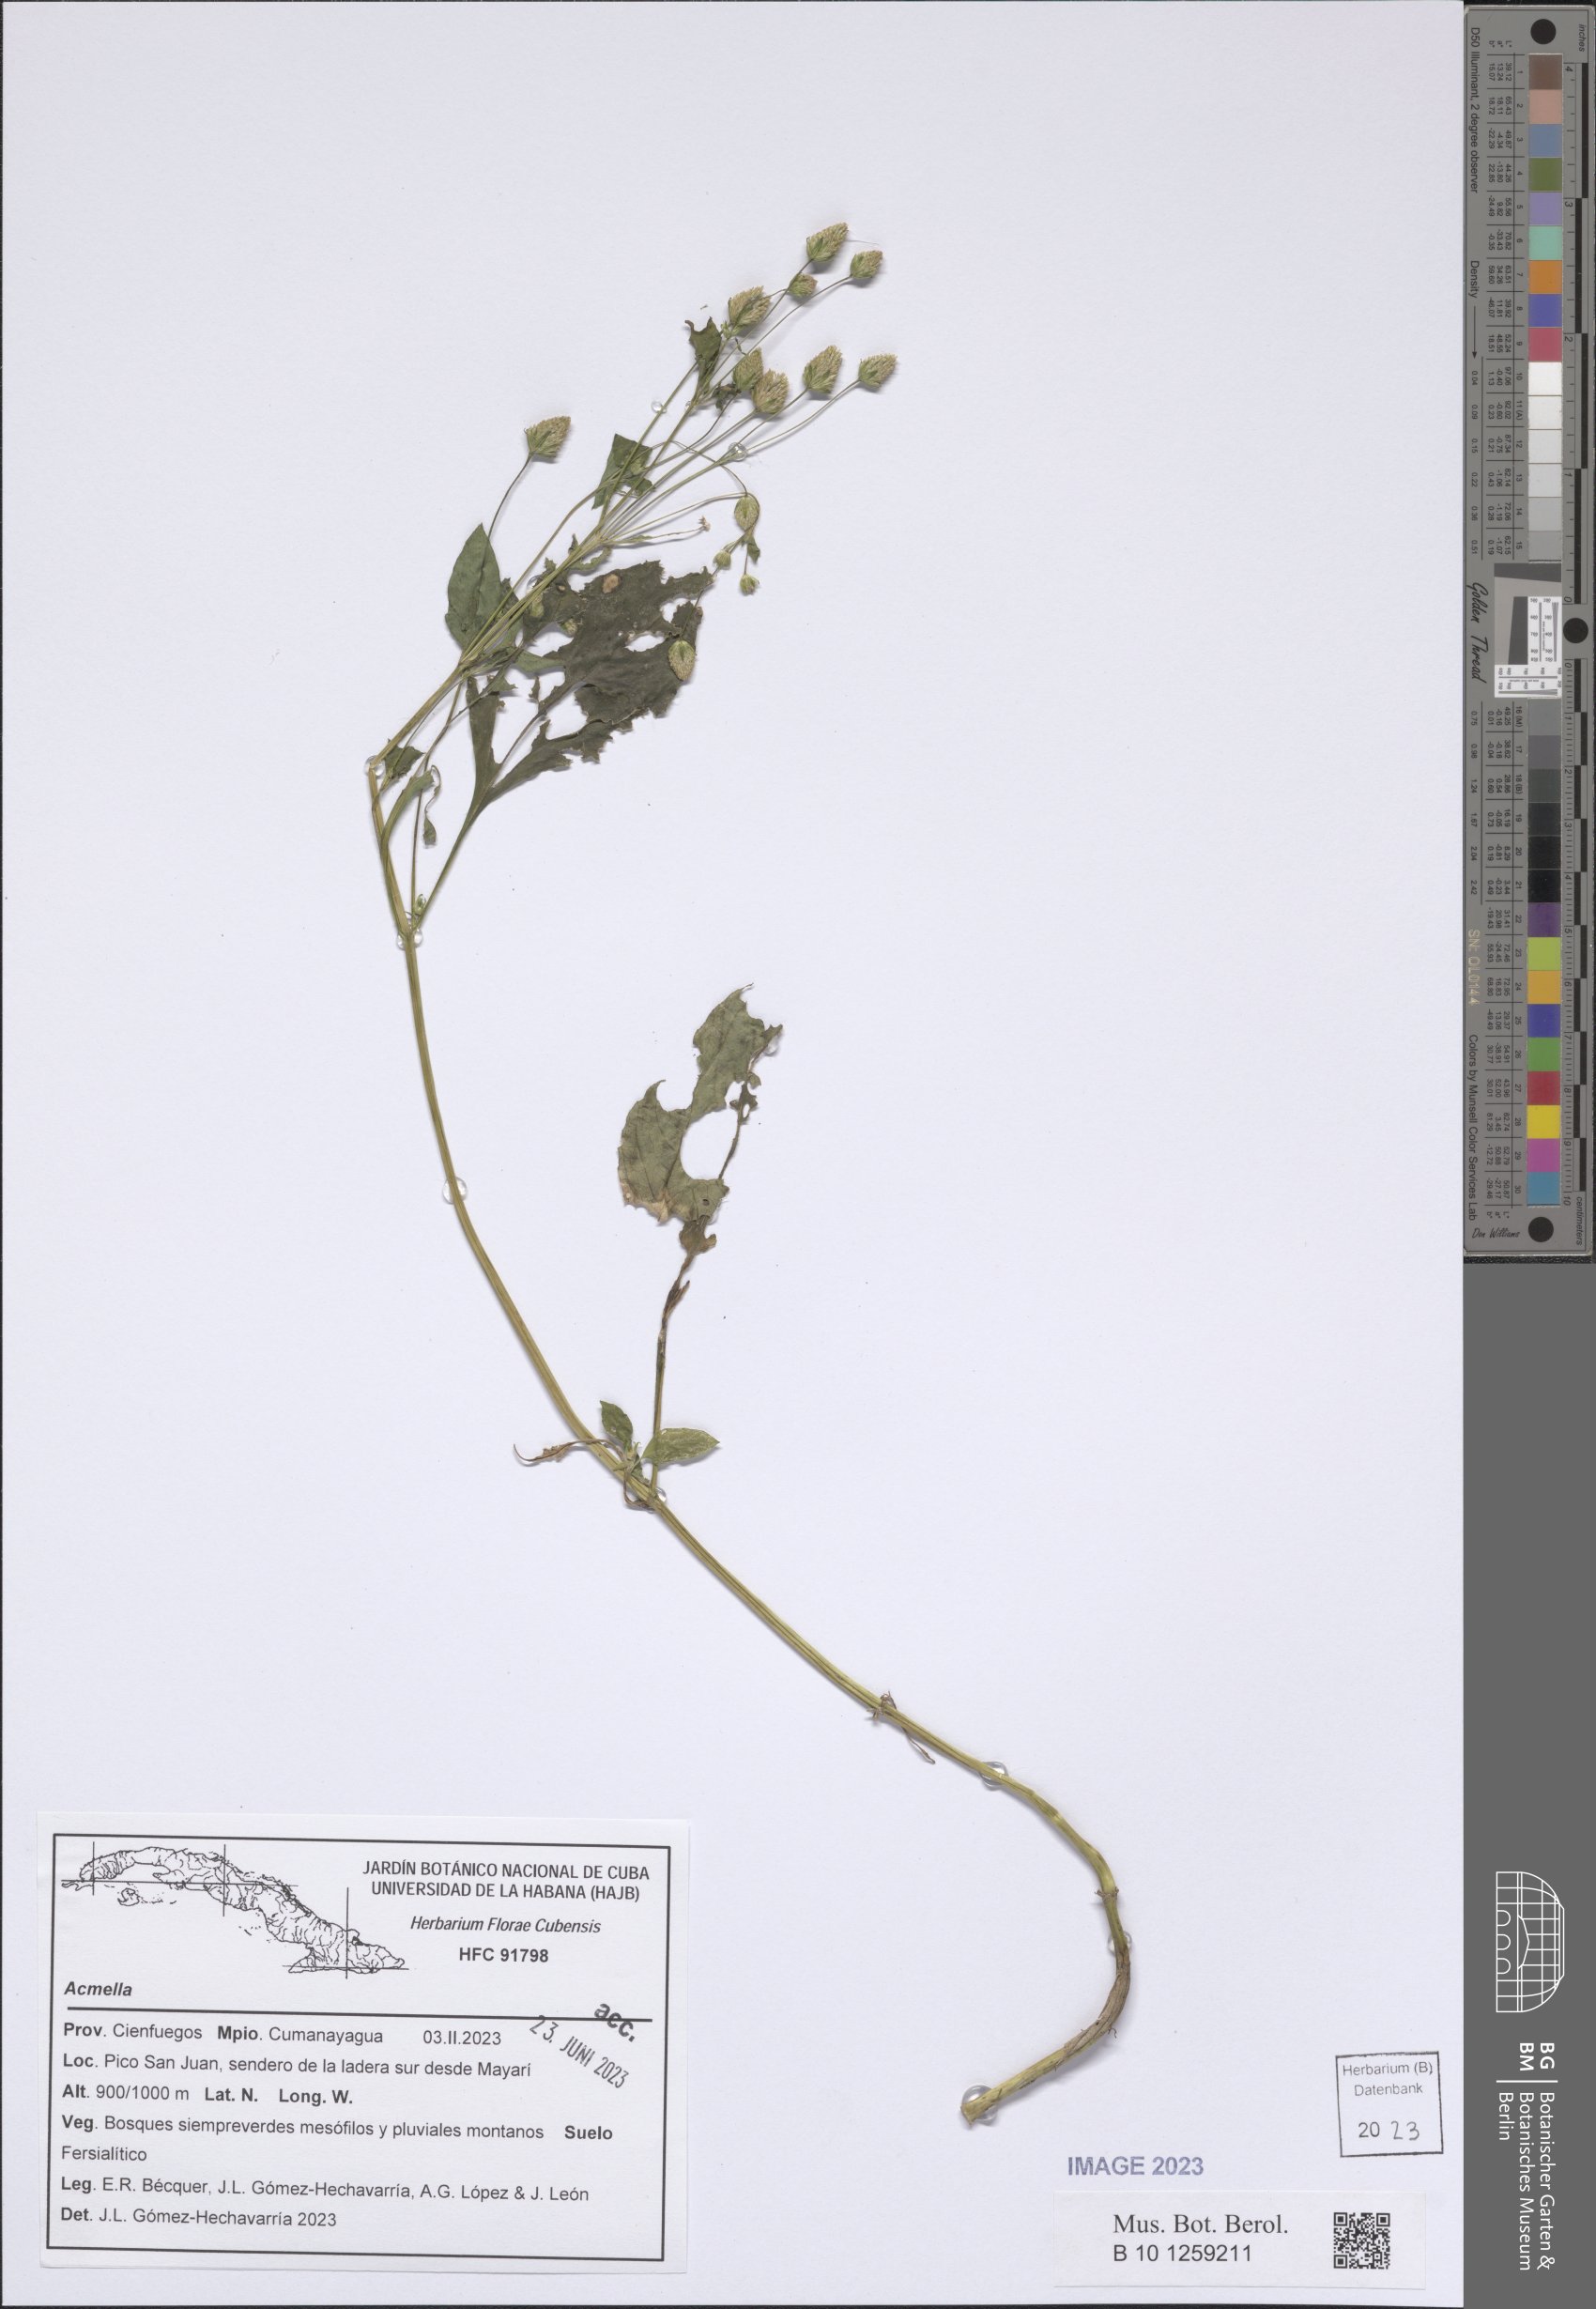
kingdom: Plantae
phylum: Tracheophyta
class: Magnoliopsida
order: Asterales
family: Asteraceae
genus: Acmella
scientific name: Acmella
